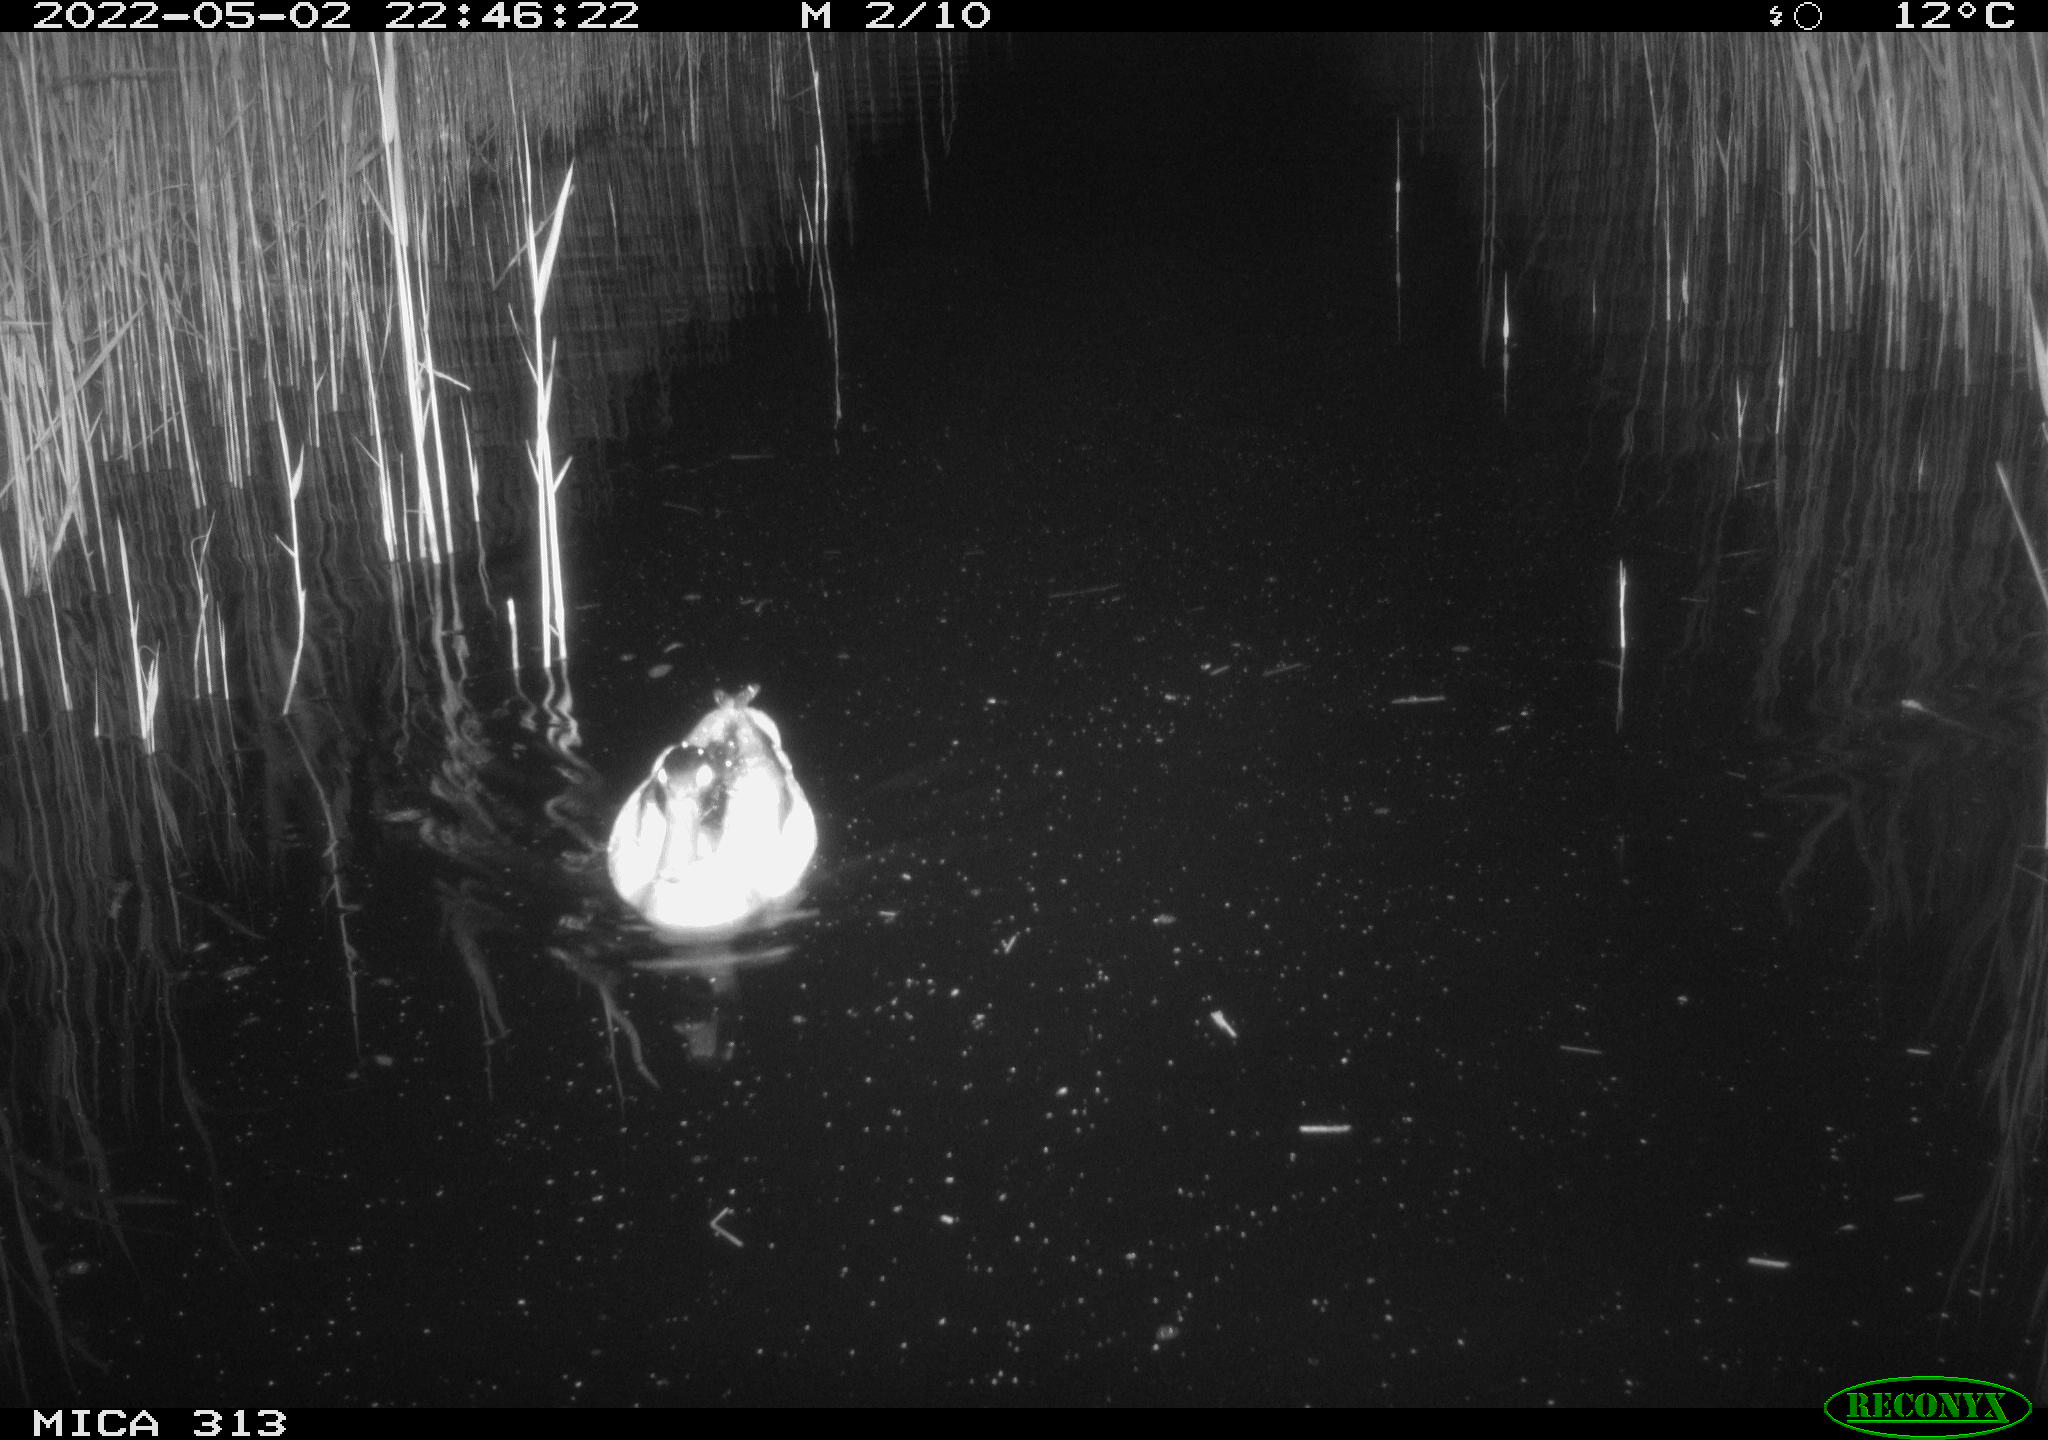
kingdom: Animalia
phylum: Chordata
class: Aves
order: Anseriformes
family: Anatidae
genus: Anas
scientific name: Anas platyrhynchos
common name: Mallard
